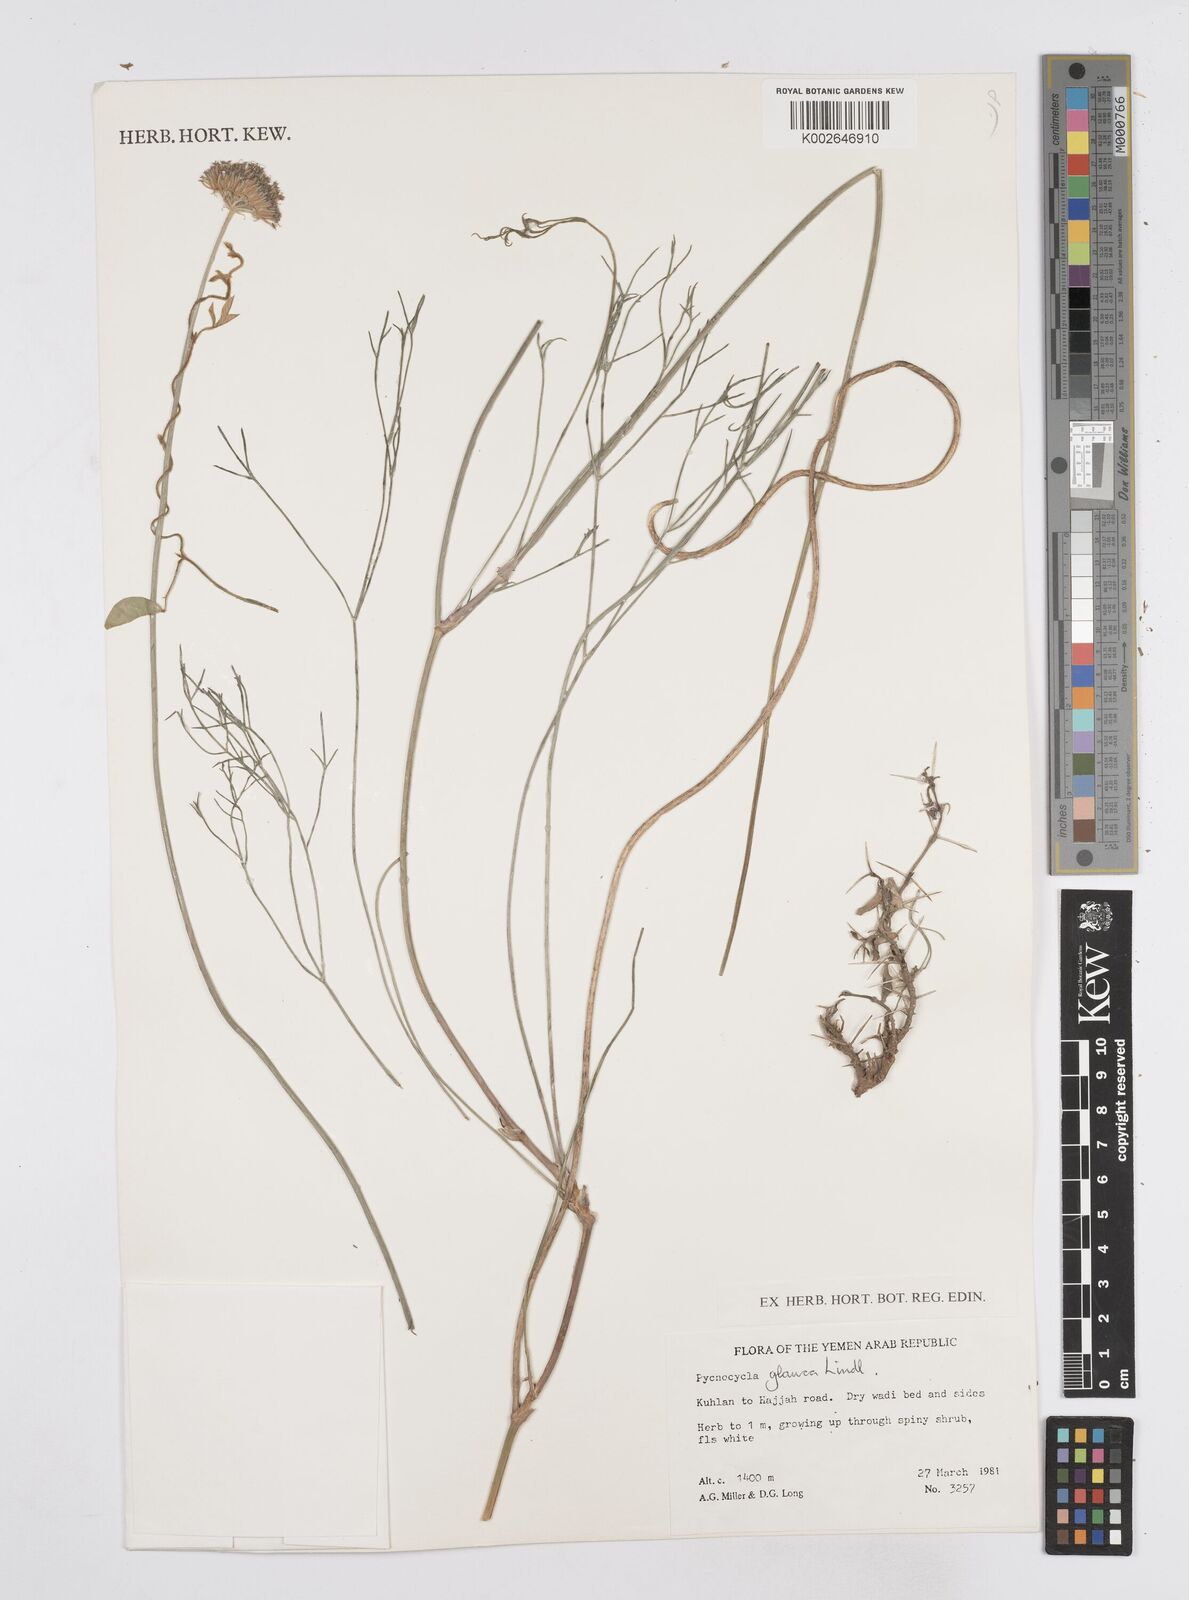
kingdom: Plantae
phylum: Tracheophyta
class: Magnoliopsida
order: Apiales
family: Apiaceae
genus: Pycnocycla
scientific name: Pycnocycla glauca
